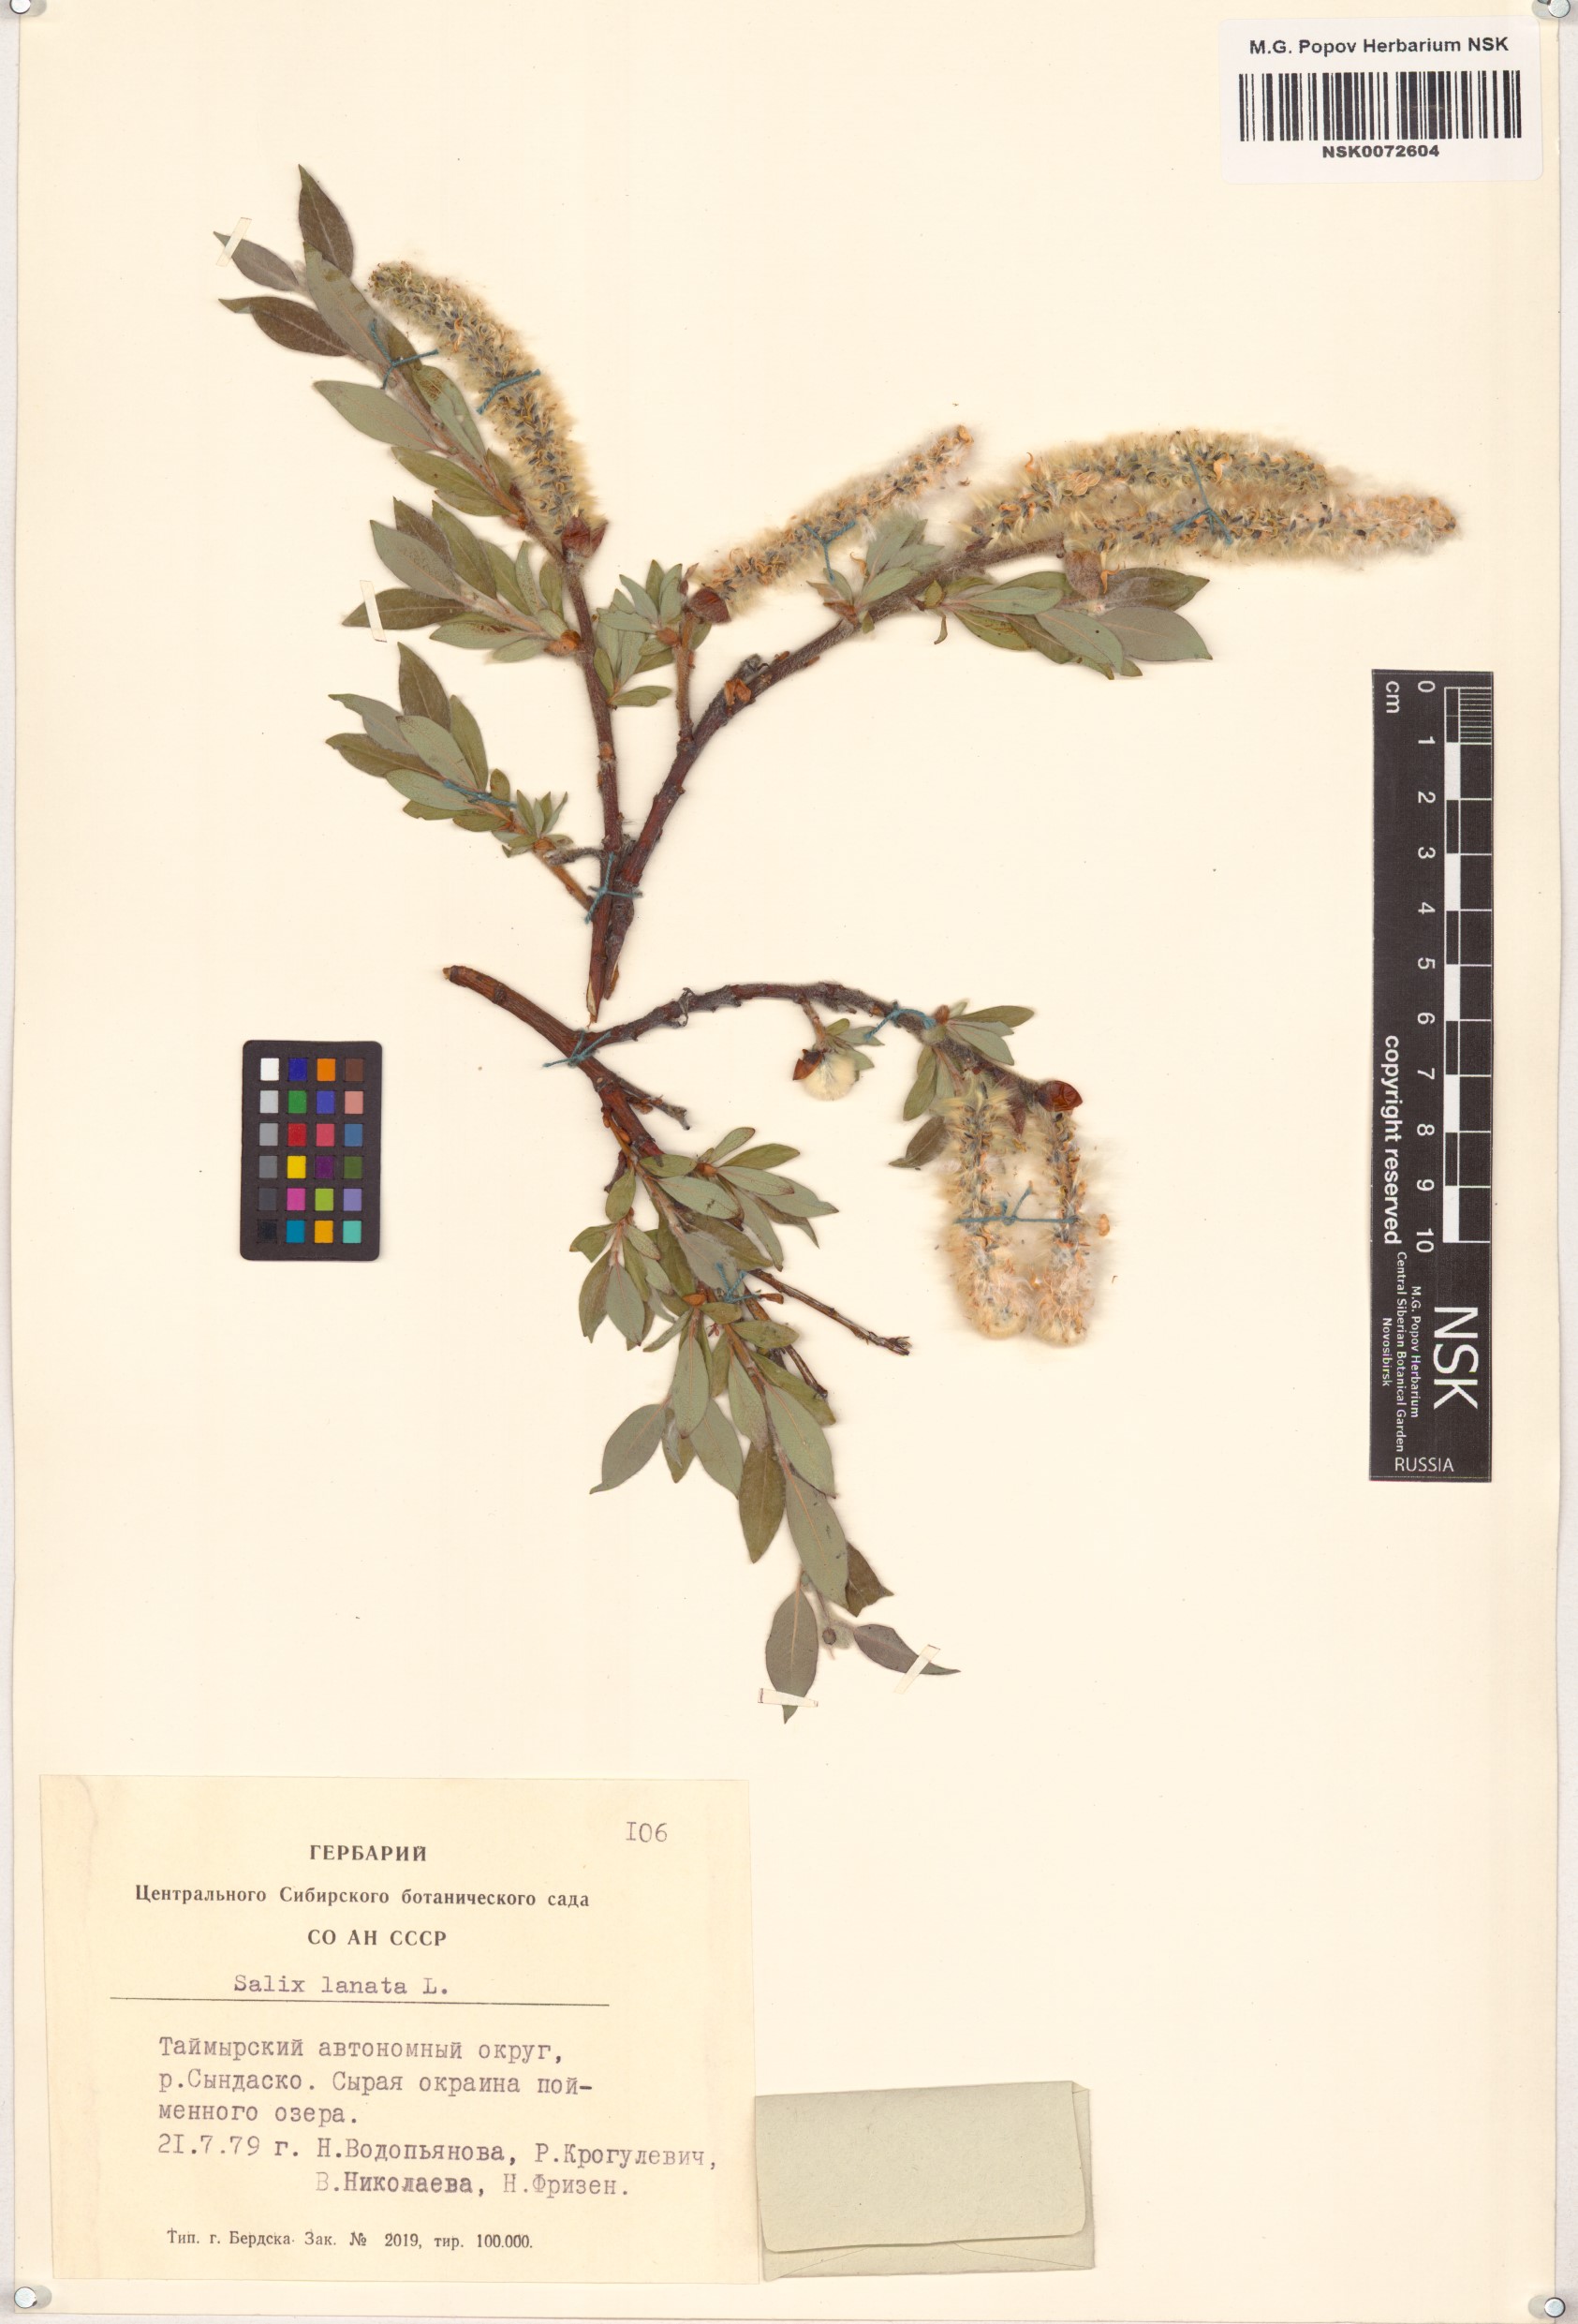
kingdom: Plantae
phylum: Tracheophyta
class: Magnoliopsida
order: Malpighiales
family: Salicaceae
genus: Salix
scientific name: Salix lanata
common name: Woolly willow
